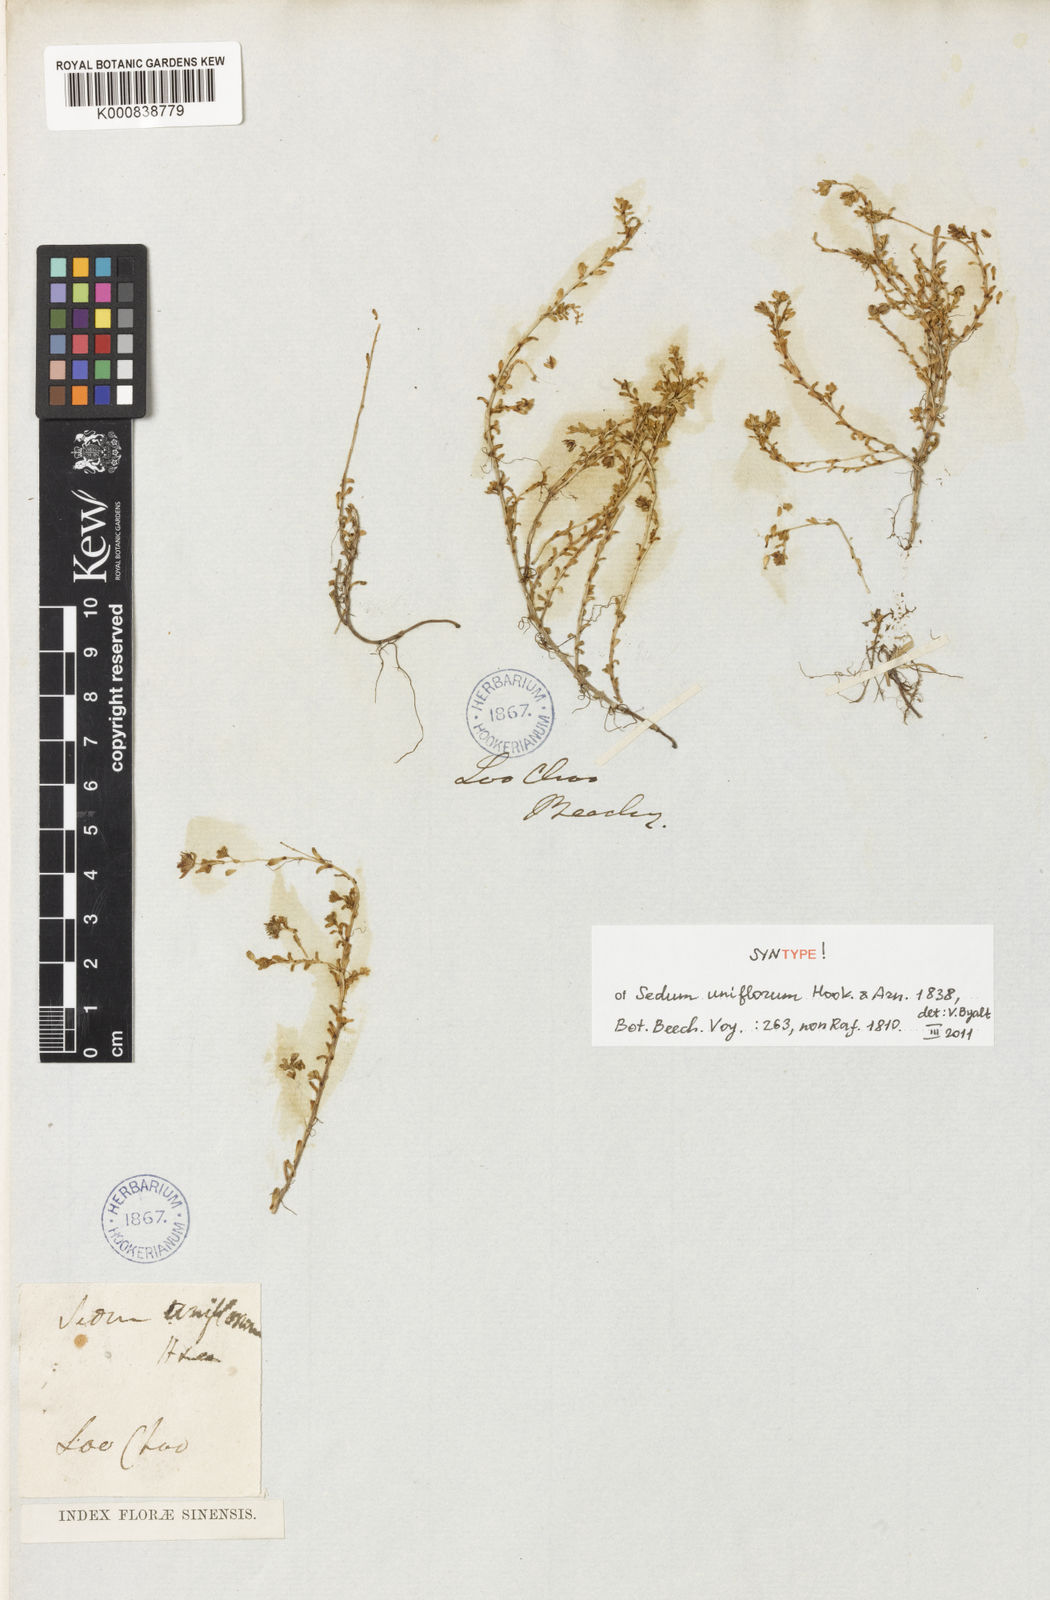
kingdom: Plantae
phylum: Tracheophyta
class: Magnoliopsida
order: Saxifragales
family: Crassulaceae
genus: Sedum
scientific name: Sedum japonicum
